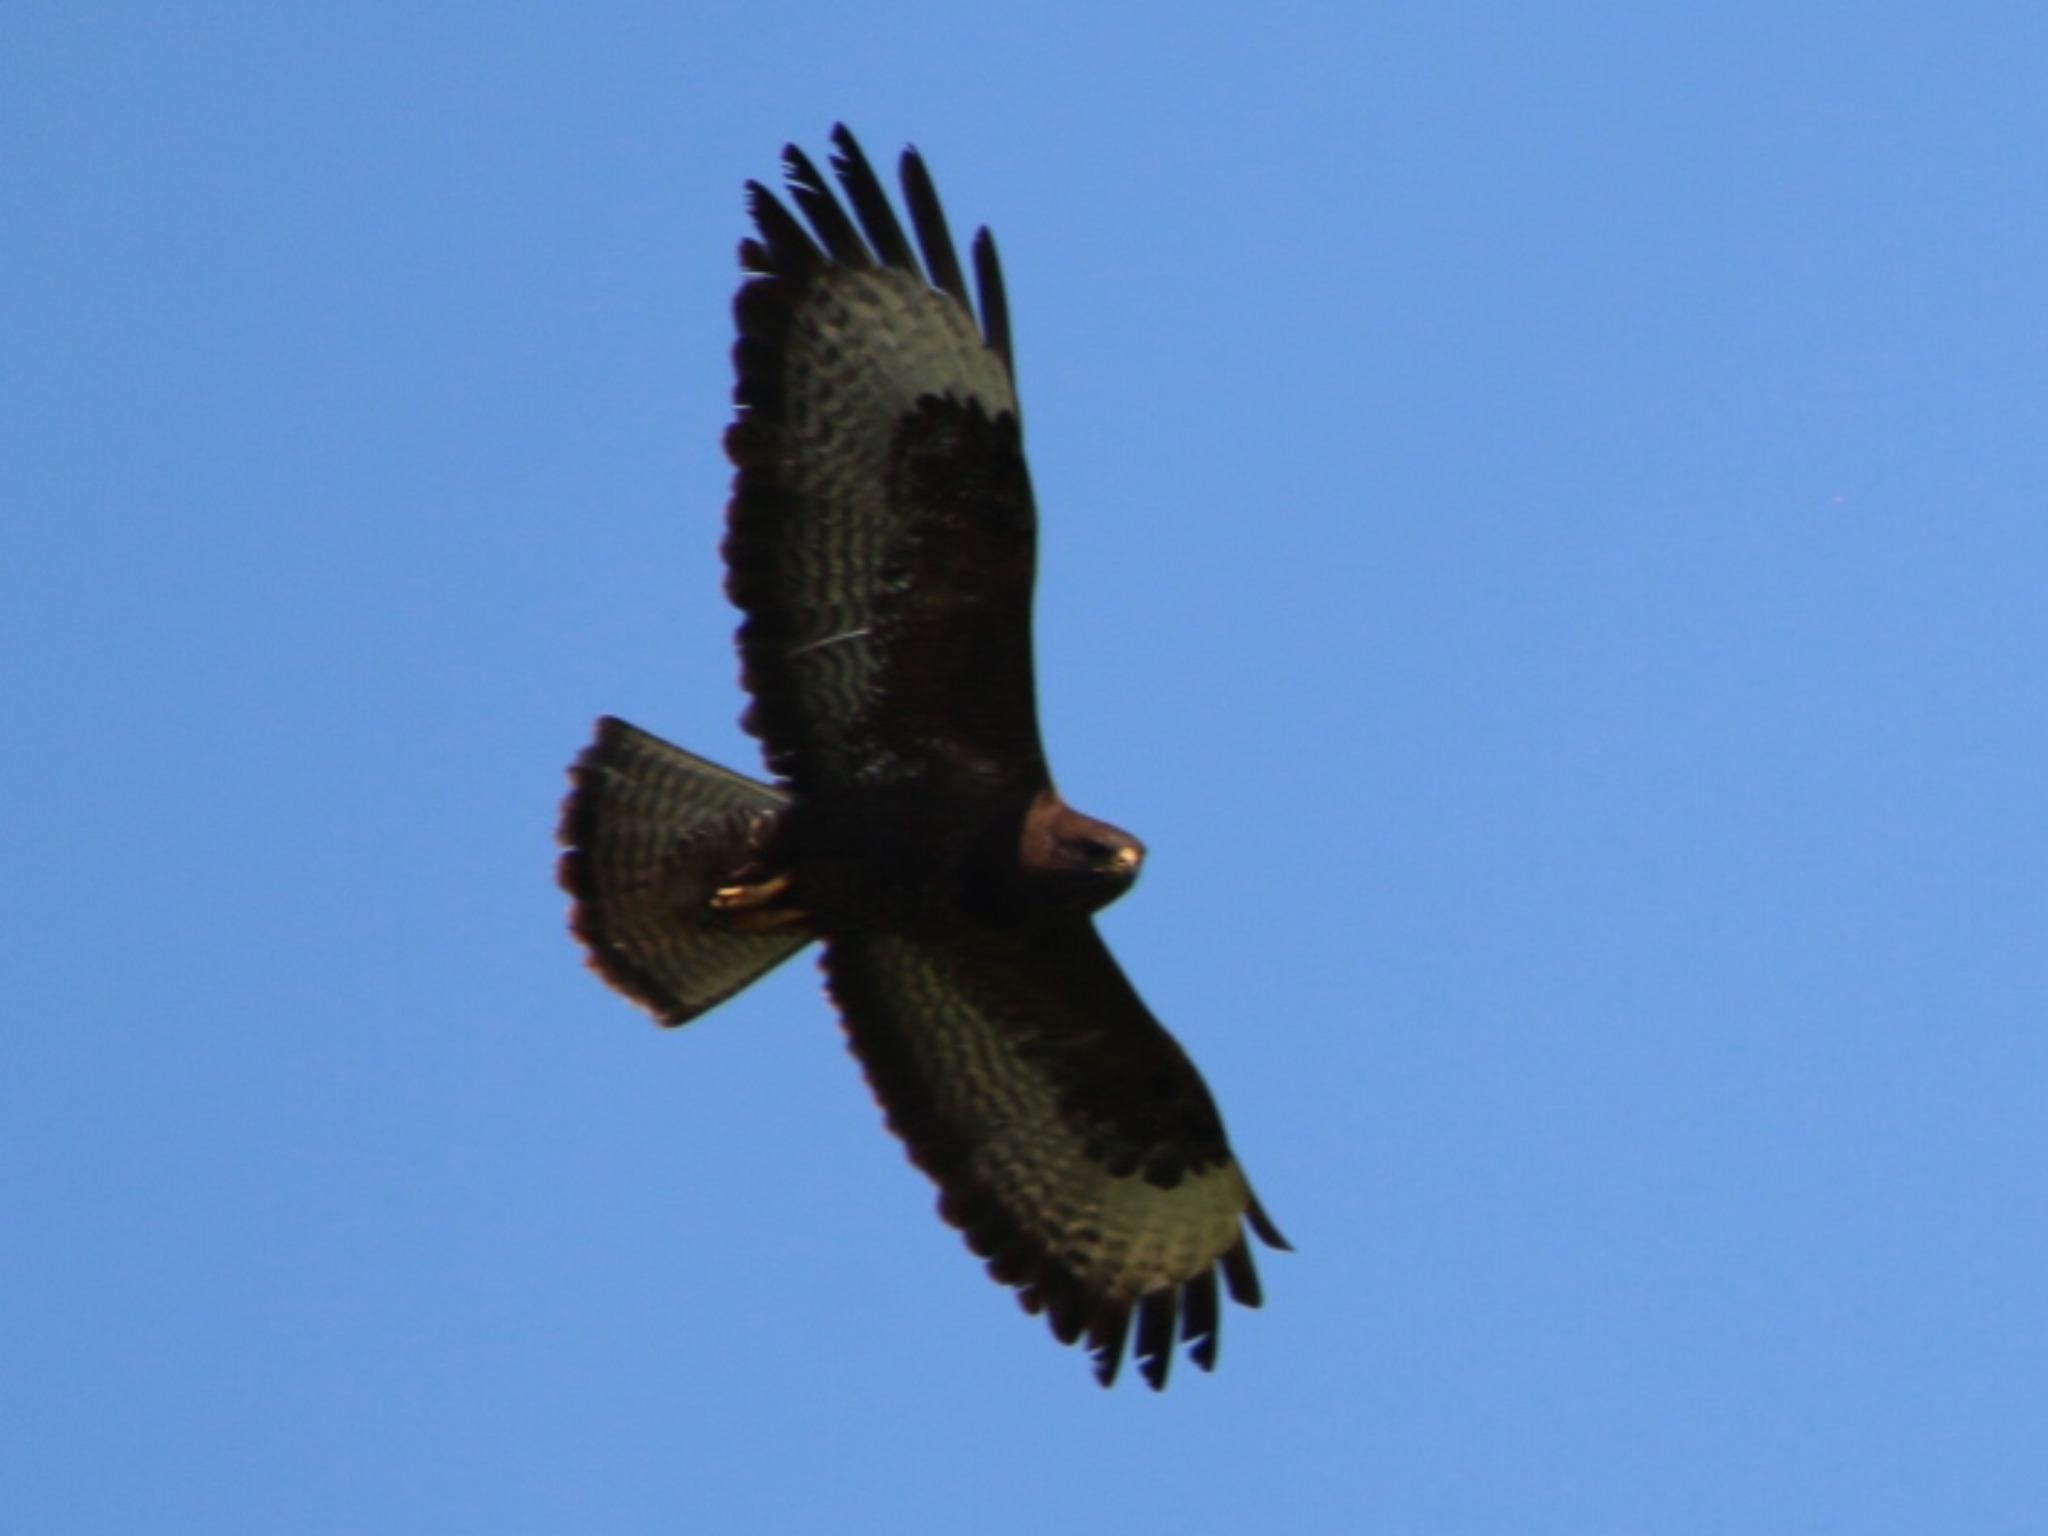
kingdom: Animalia
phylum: Chordata
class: Aves
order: Accipitriformes
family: Accipitridae
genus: Buteo
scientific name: Buteo buteo
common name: Musvåge
